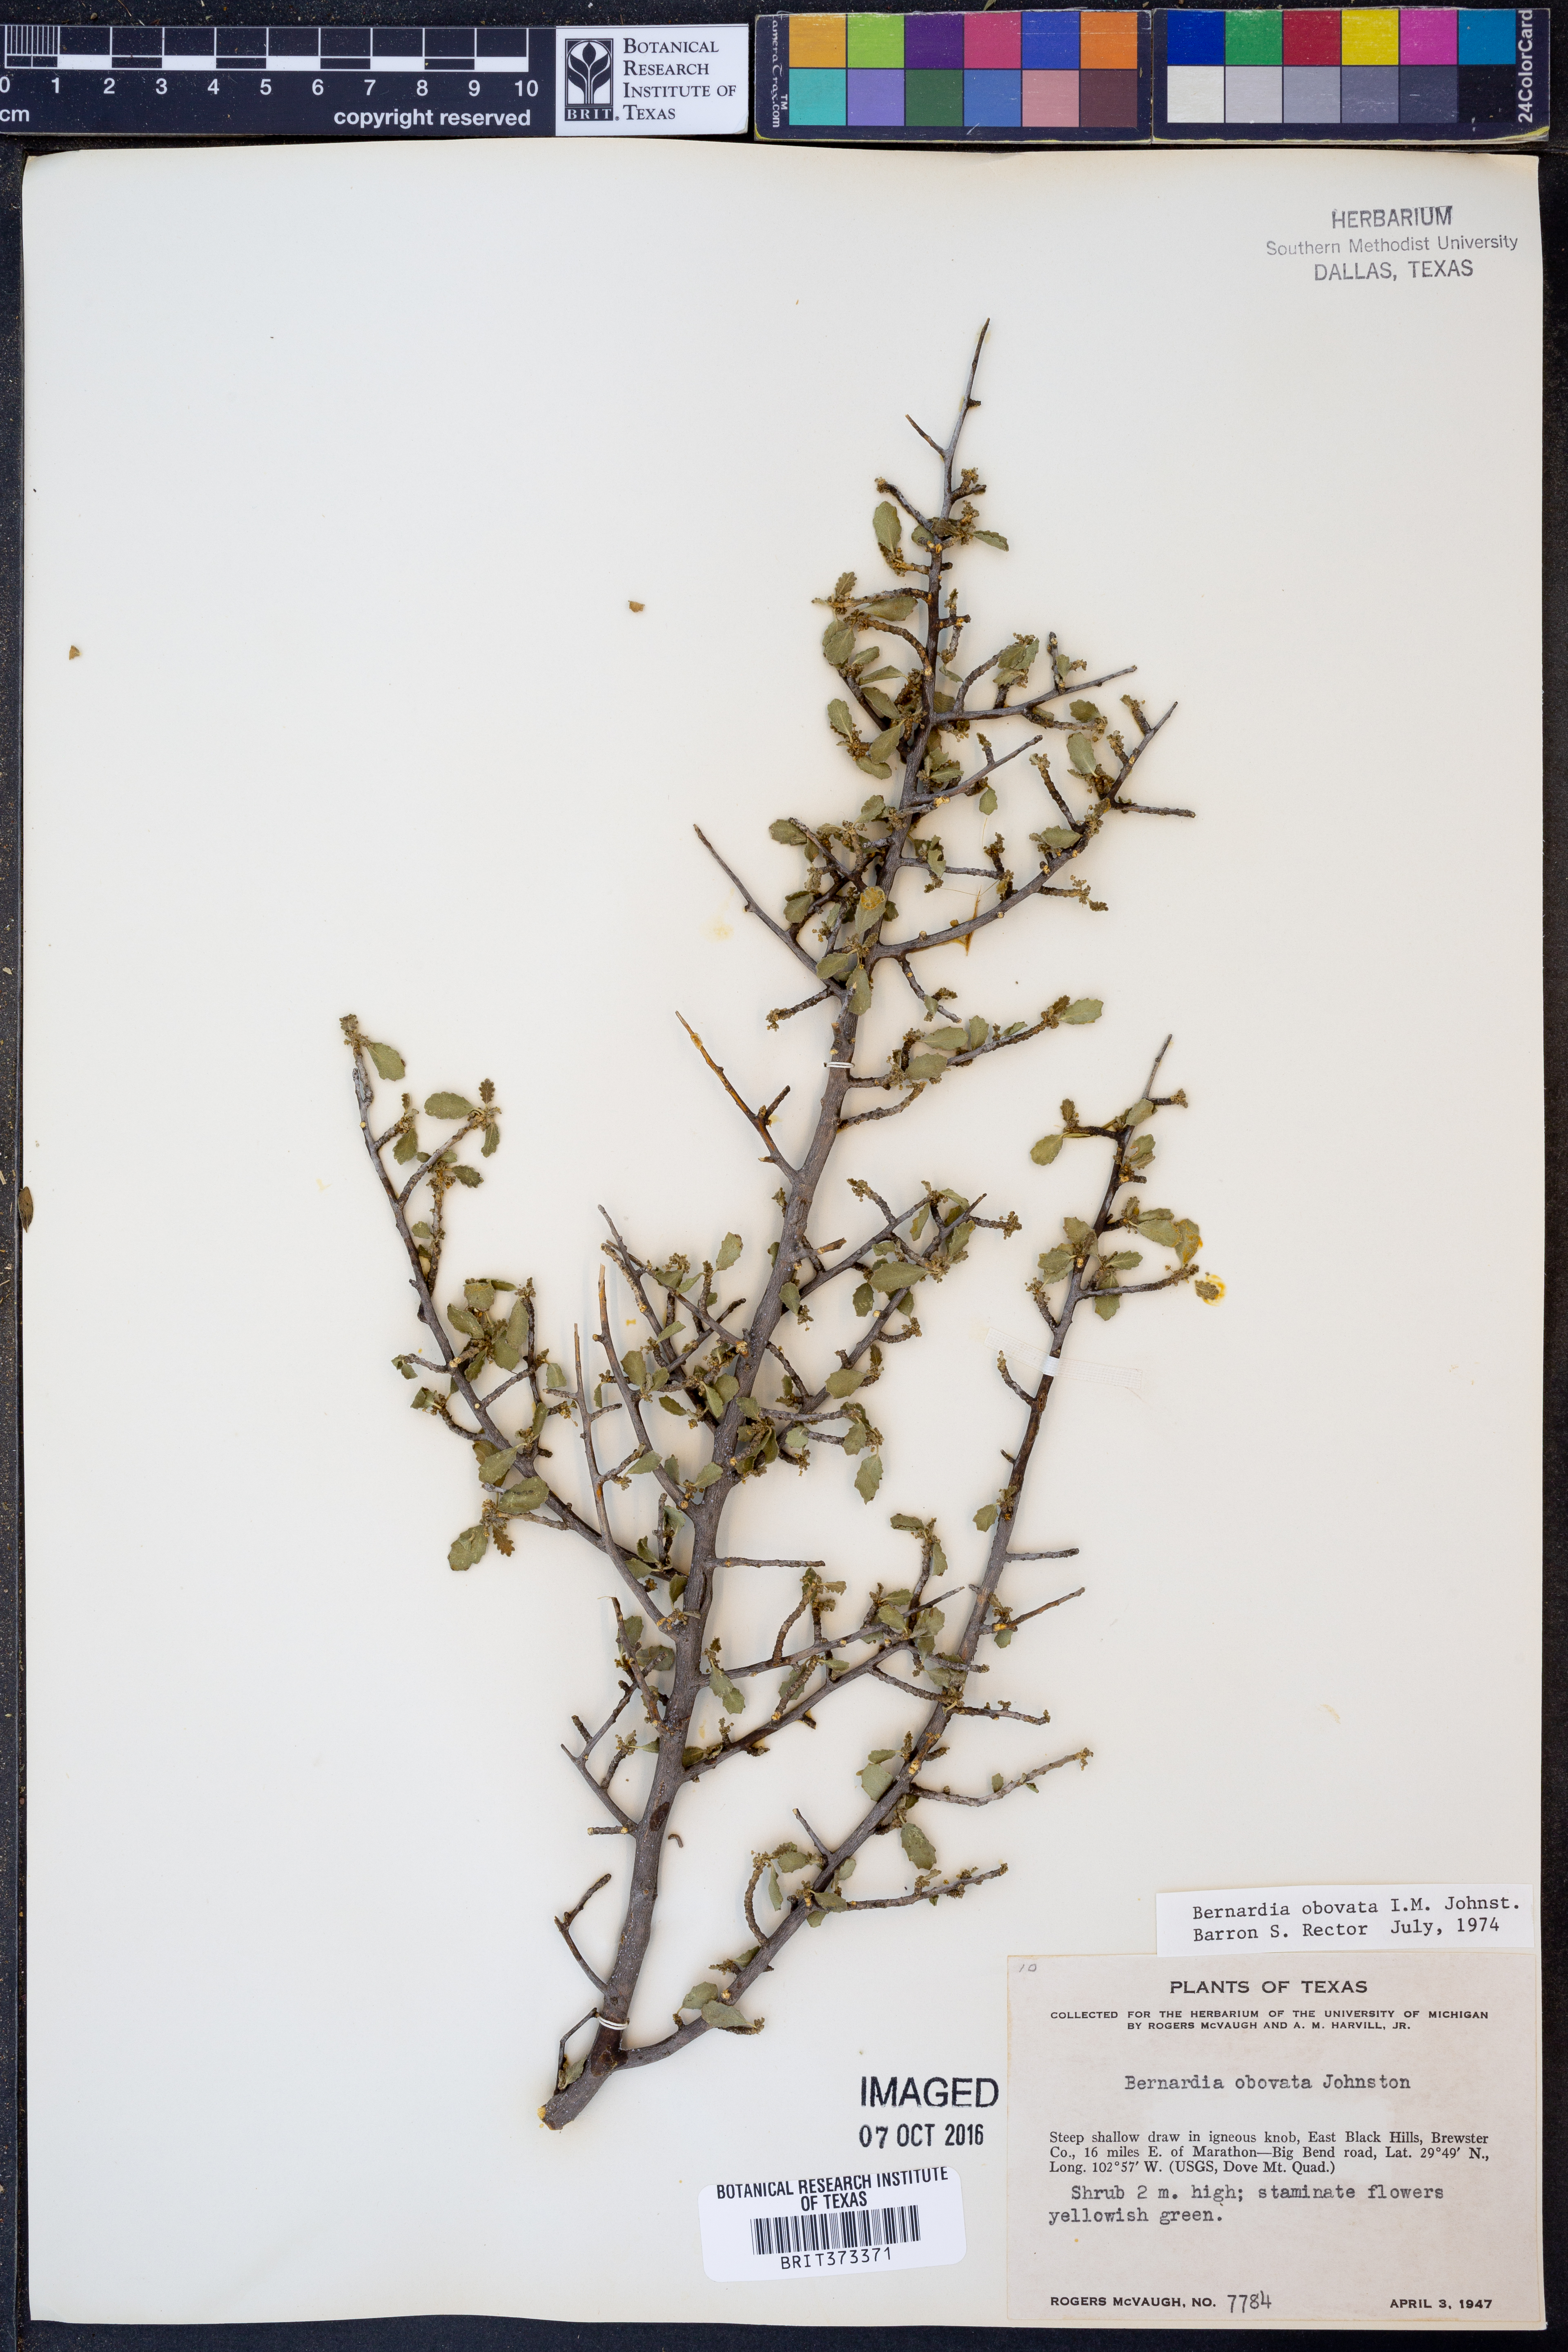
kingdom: Plantae
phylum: Tracheophyta
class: Magnoliopsida
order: Malpighiales
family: Euphorbiaceae
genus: Bernardia
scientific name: Bernardia obovata
